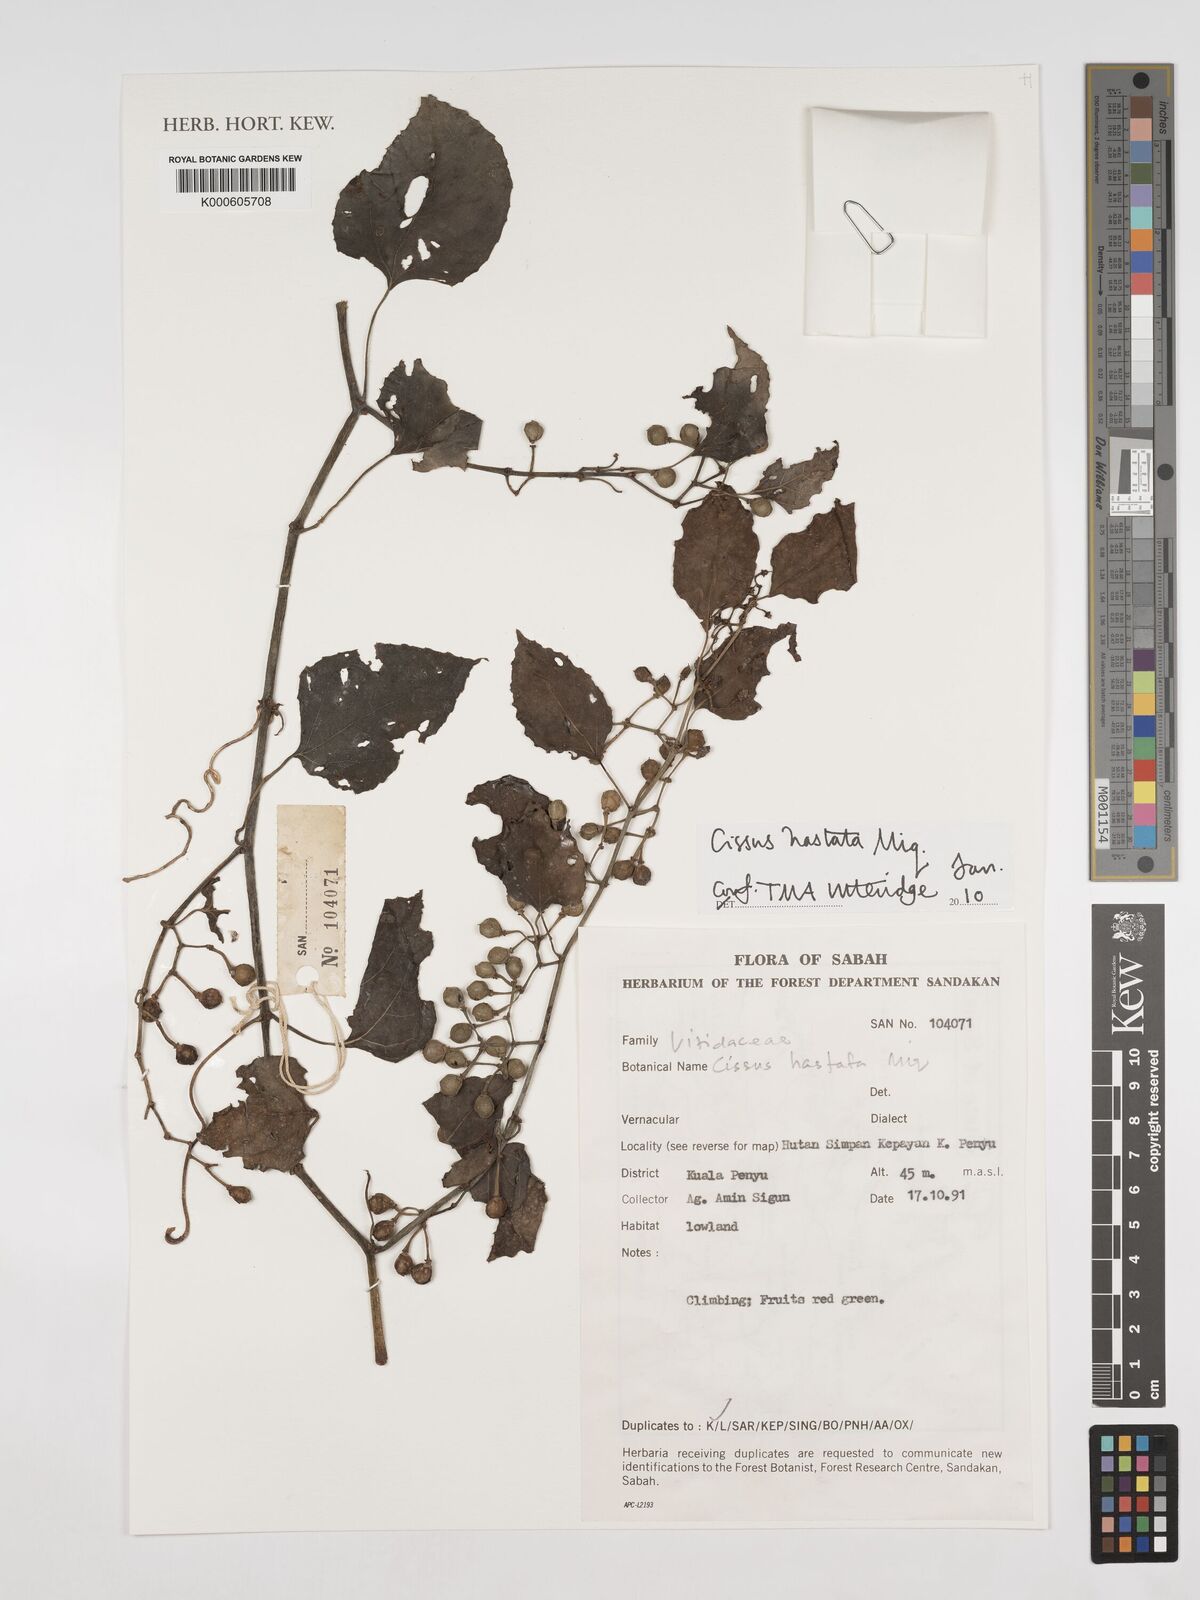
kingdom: Plantae
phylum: Tracheophyta
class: Magnoliopsida
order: Vitales
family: Vitaceae
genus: Cissus
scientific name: Cissus hastata
